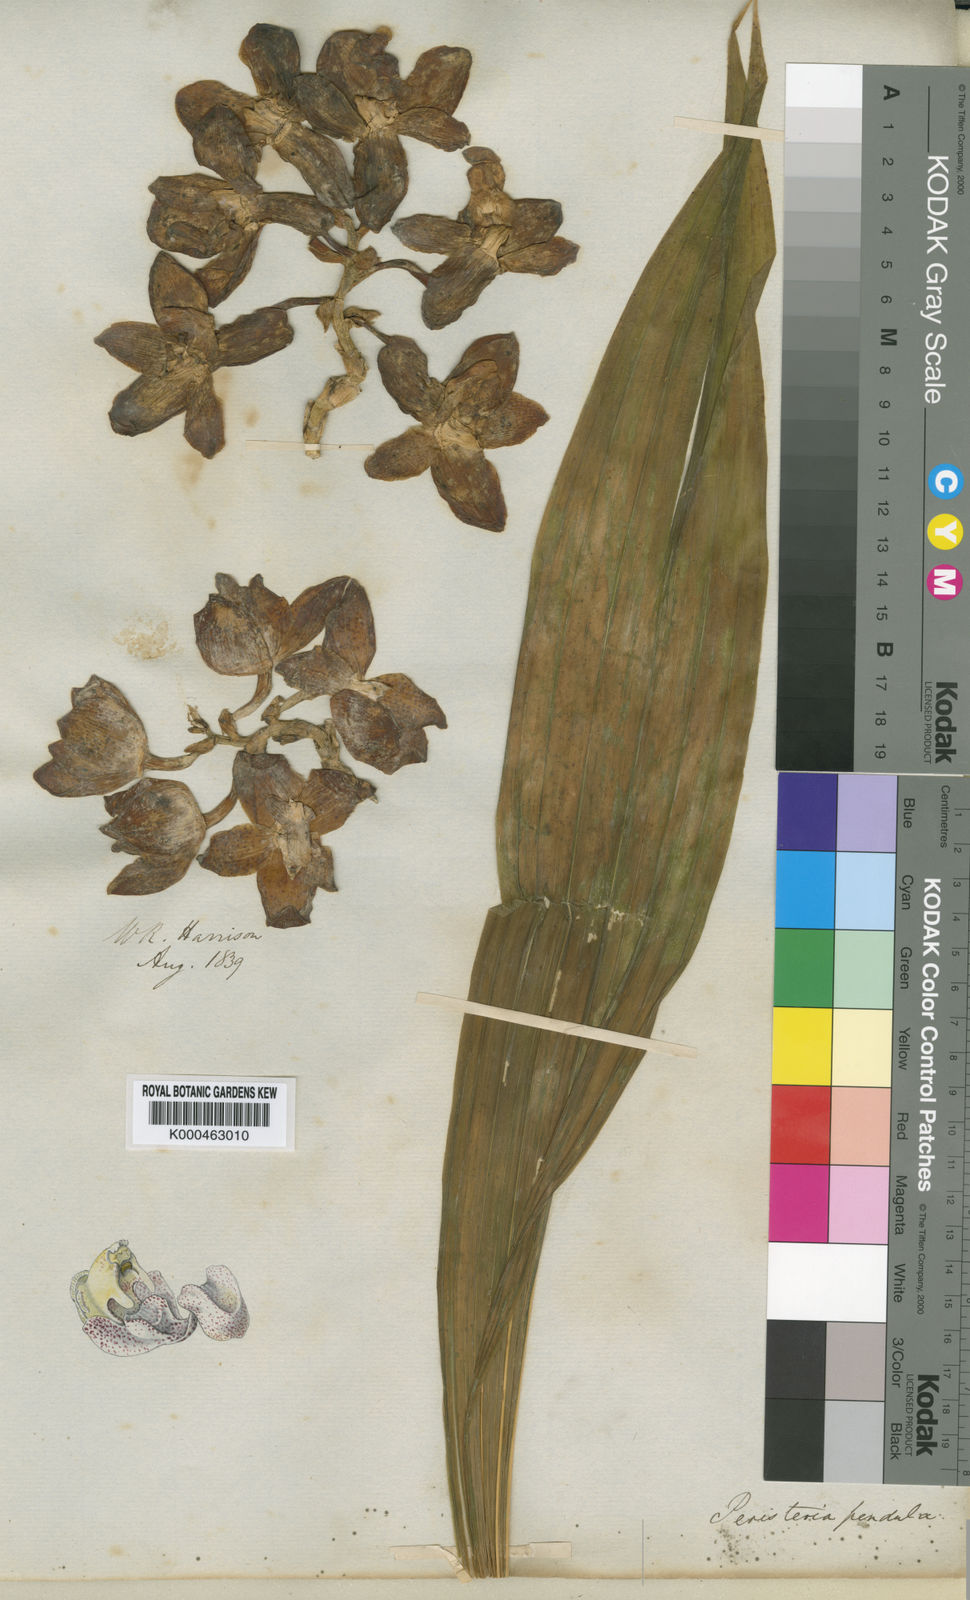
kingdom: Plantae
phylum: Tracheophyta
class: Liliopsida
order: Asparagales
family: Orchidaceae
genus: Peristeria
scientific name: Peristeria pendula
